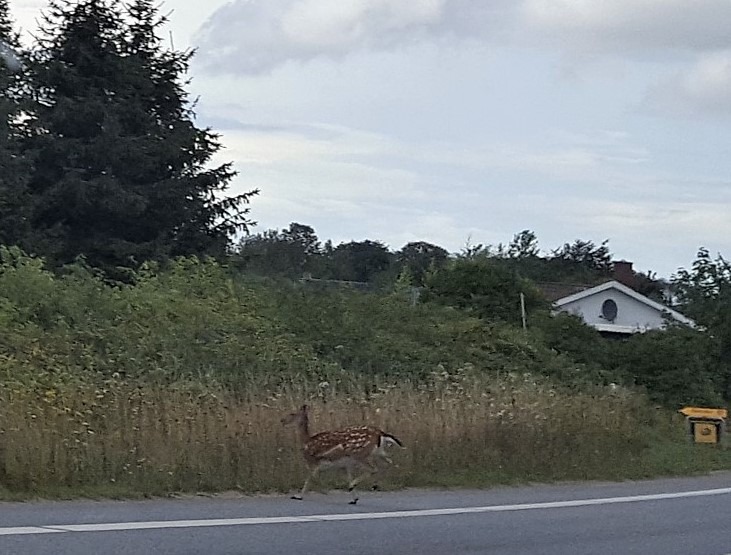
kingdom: Animalia
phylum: Chordata
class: Mammalia
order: Artiodactyla
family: Cervidae
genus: Dama
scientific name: Dama dama
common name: Dådyr
